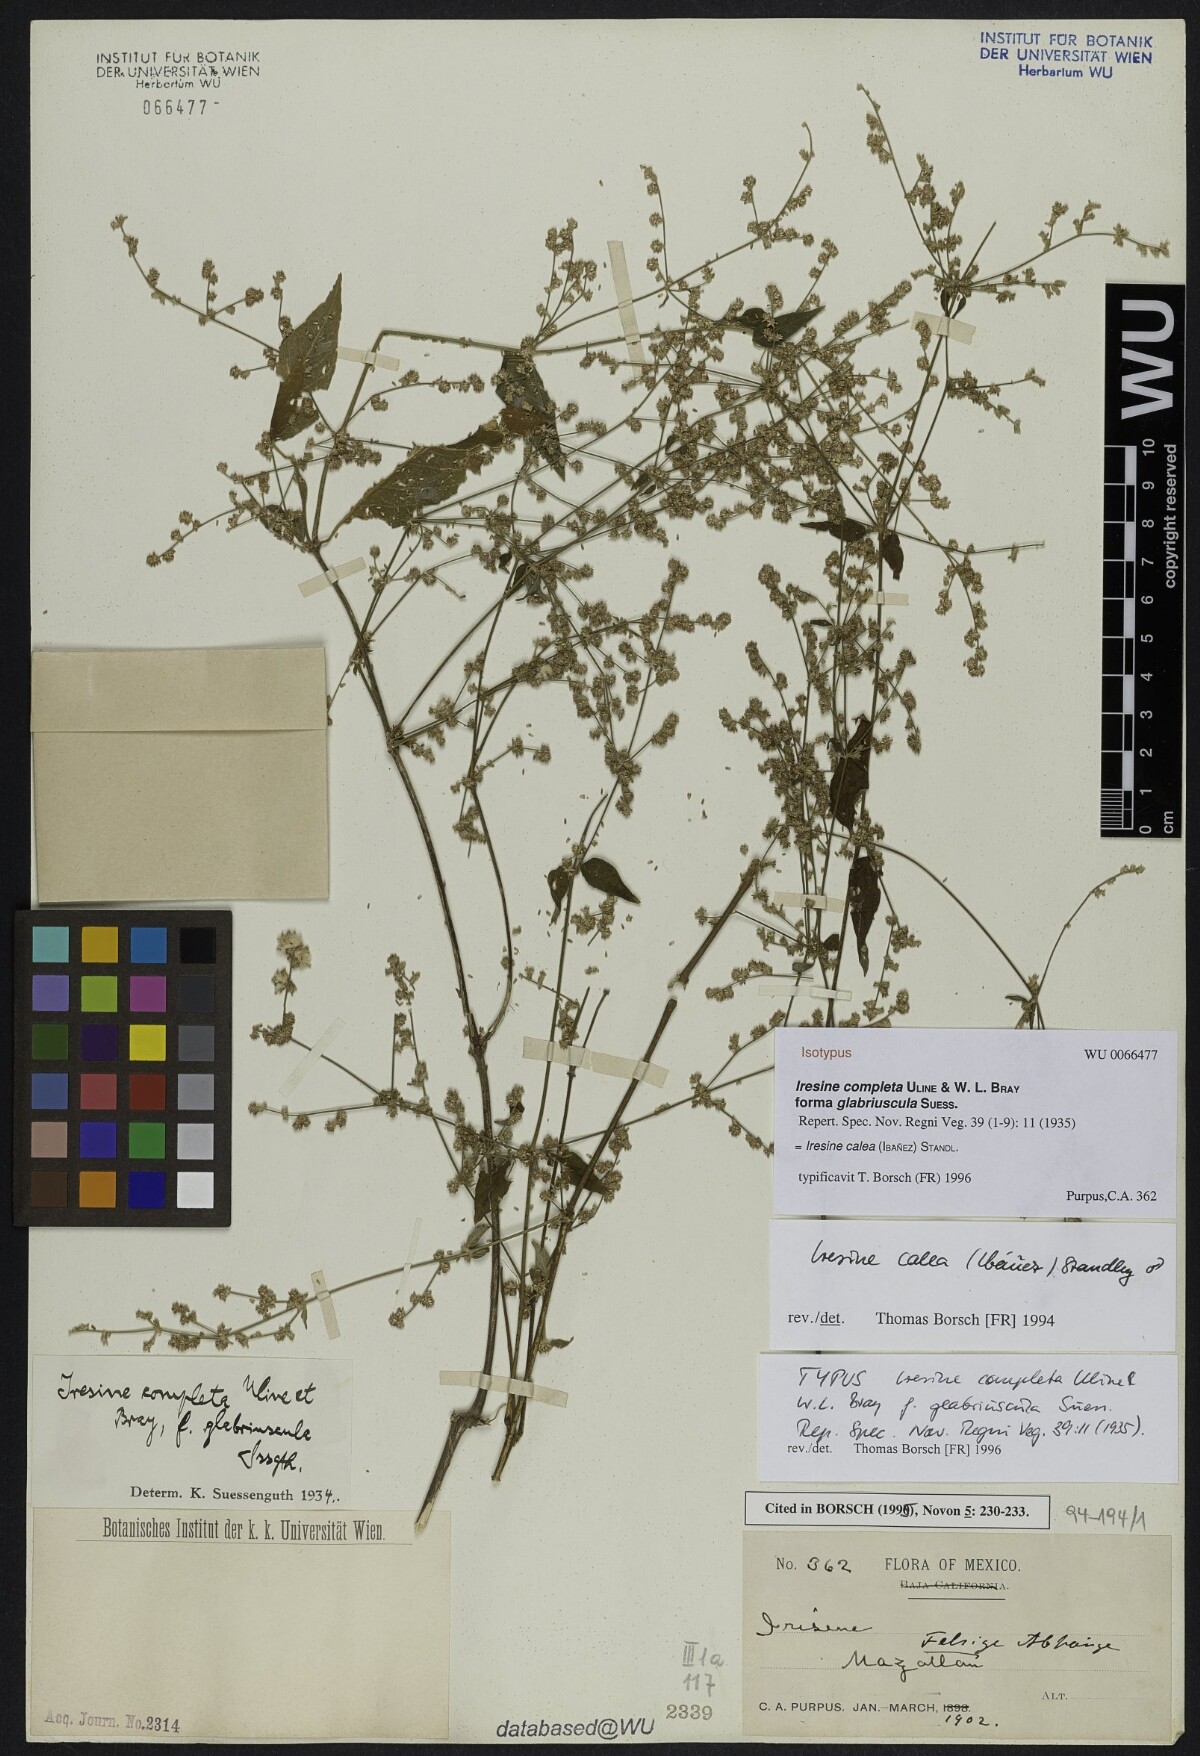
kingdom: Plantae
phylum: Tracheophyta
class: Magnoliopsida
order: Caryophyllales
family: Amaranthaceae
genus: Pedersenia
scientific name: Pedersenia completa
